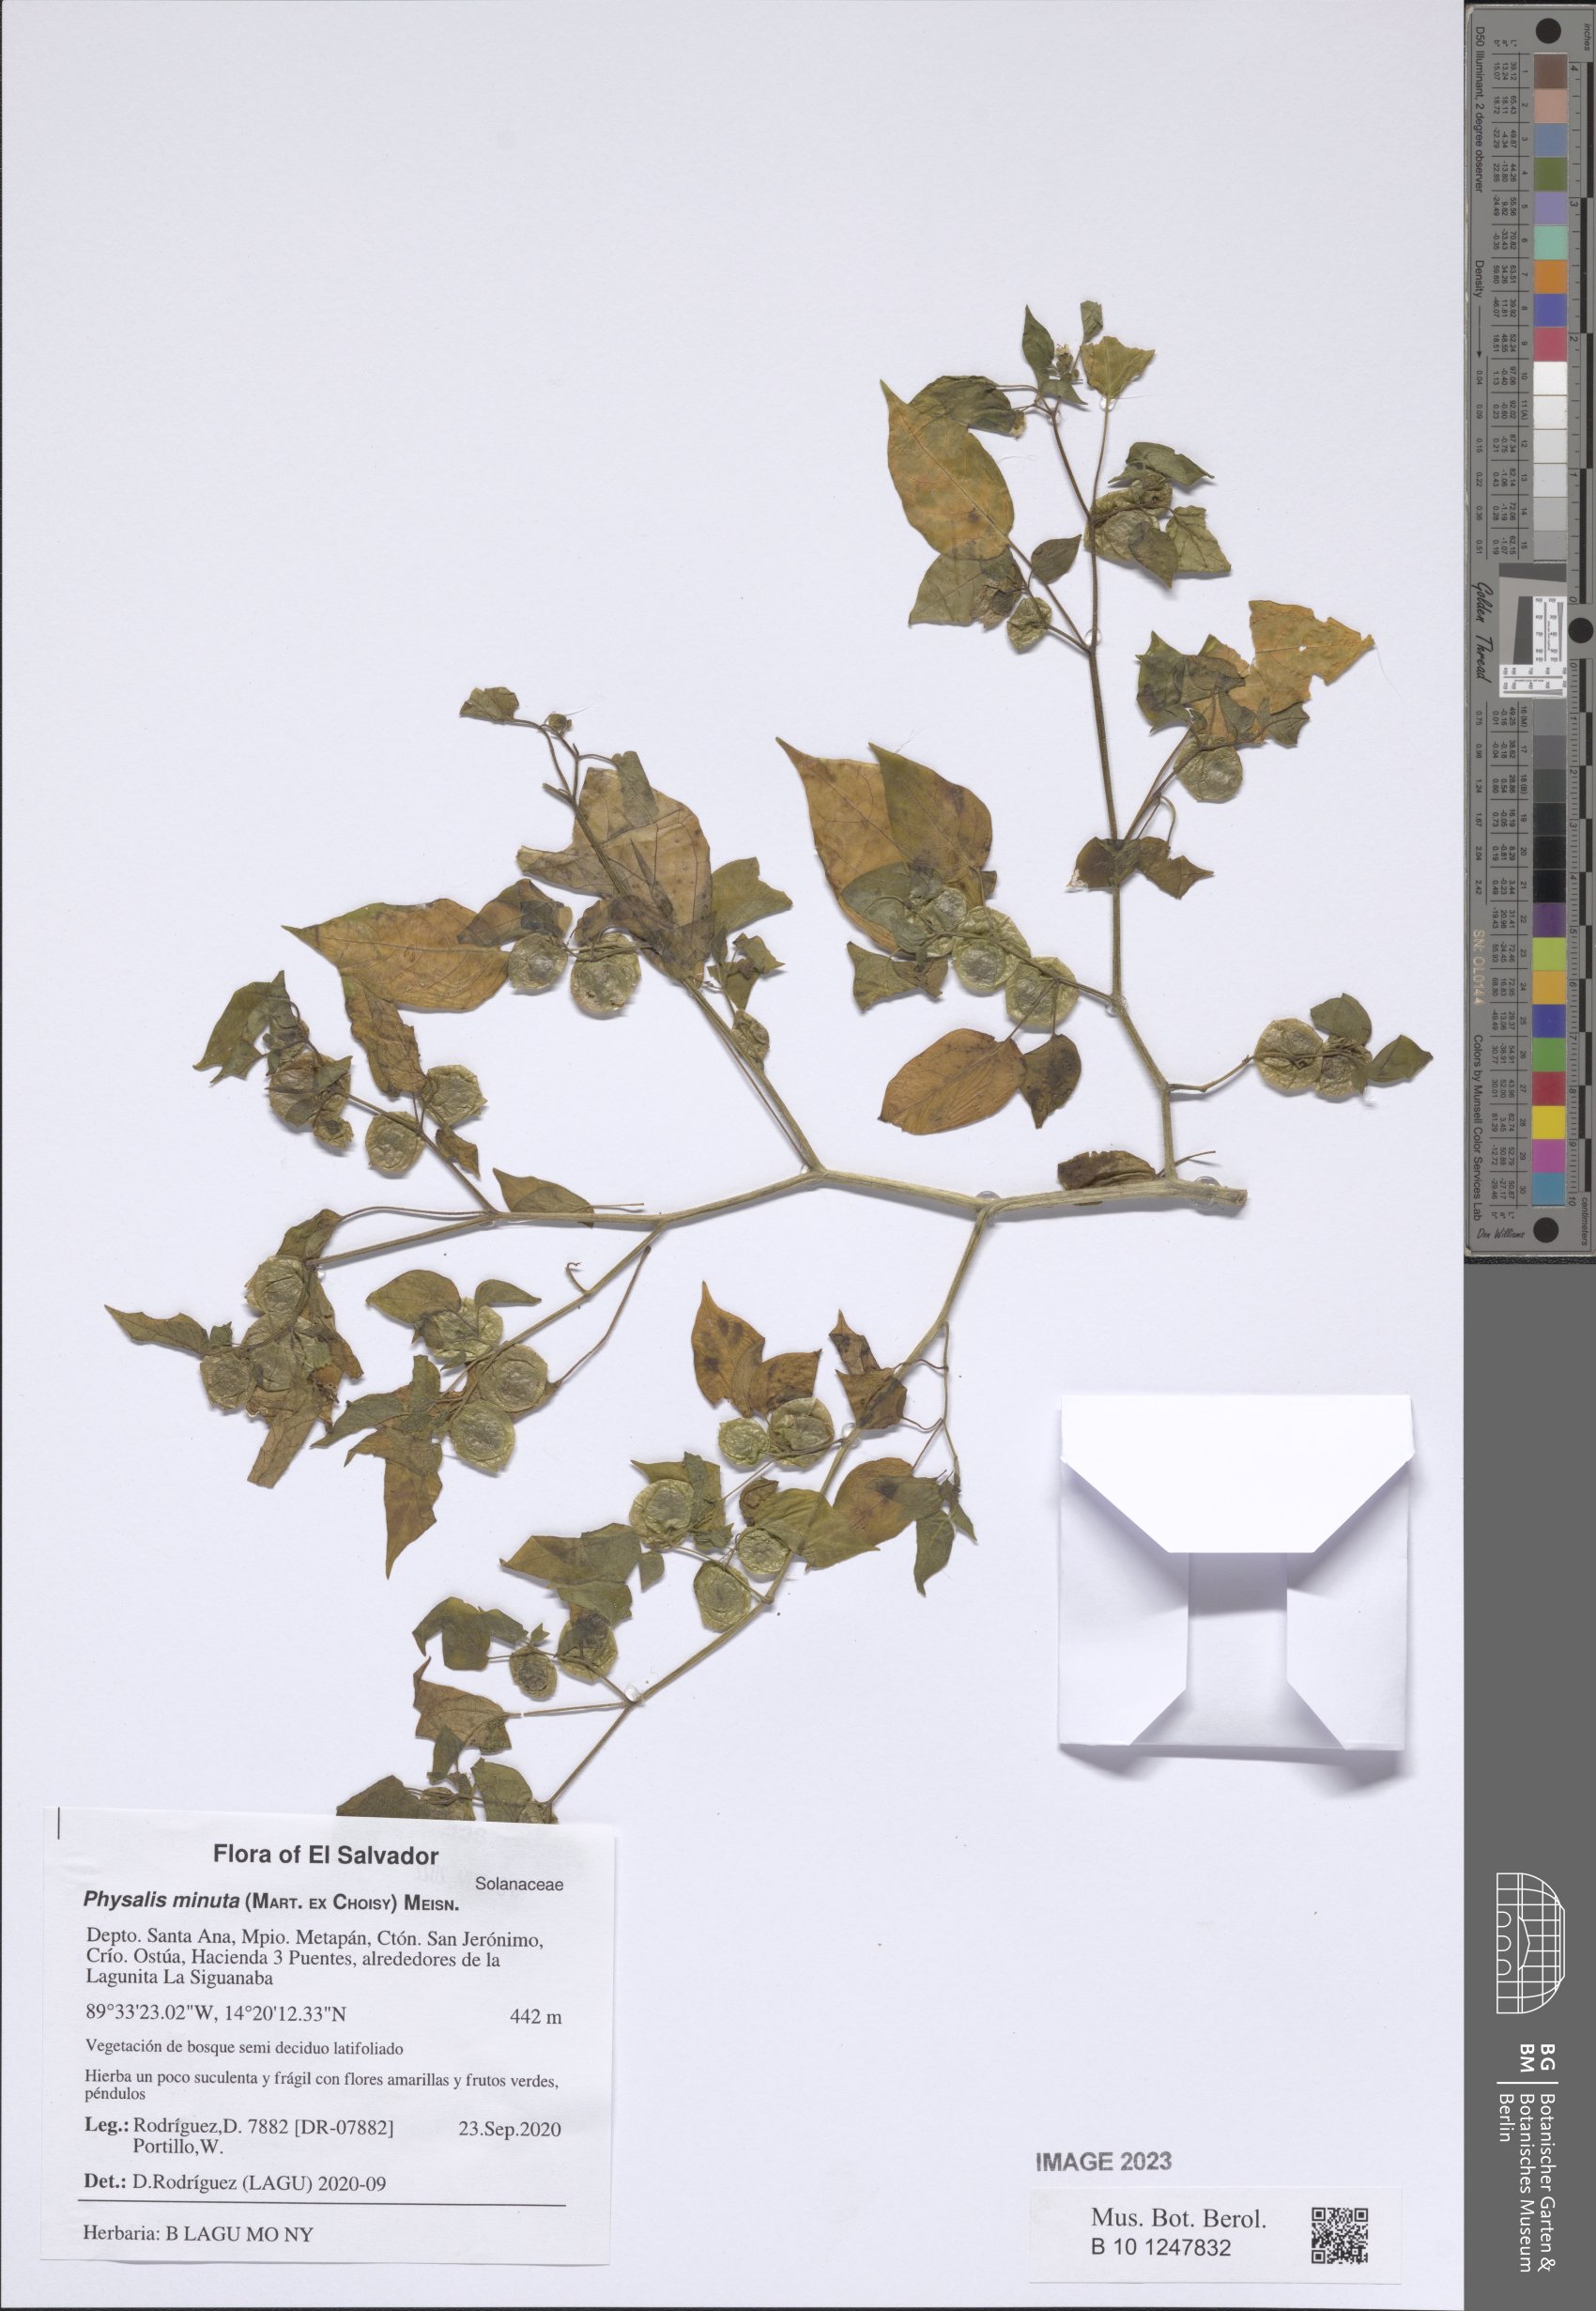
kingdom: Plantae
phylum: Tracheophyta
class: Magnoliopsida
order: Solanales
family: Solanaceae
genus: Physalis
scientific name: Physalis minuta
